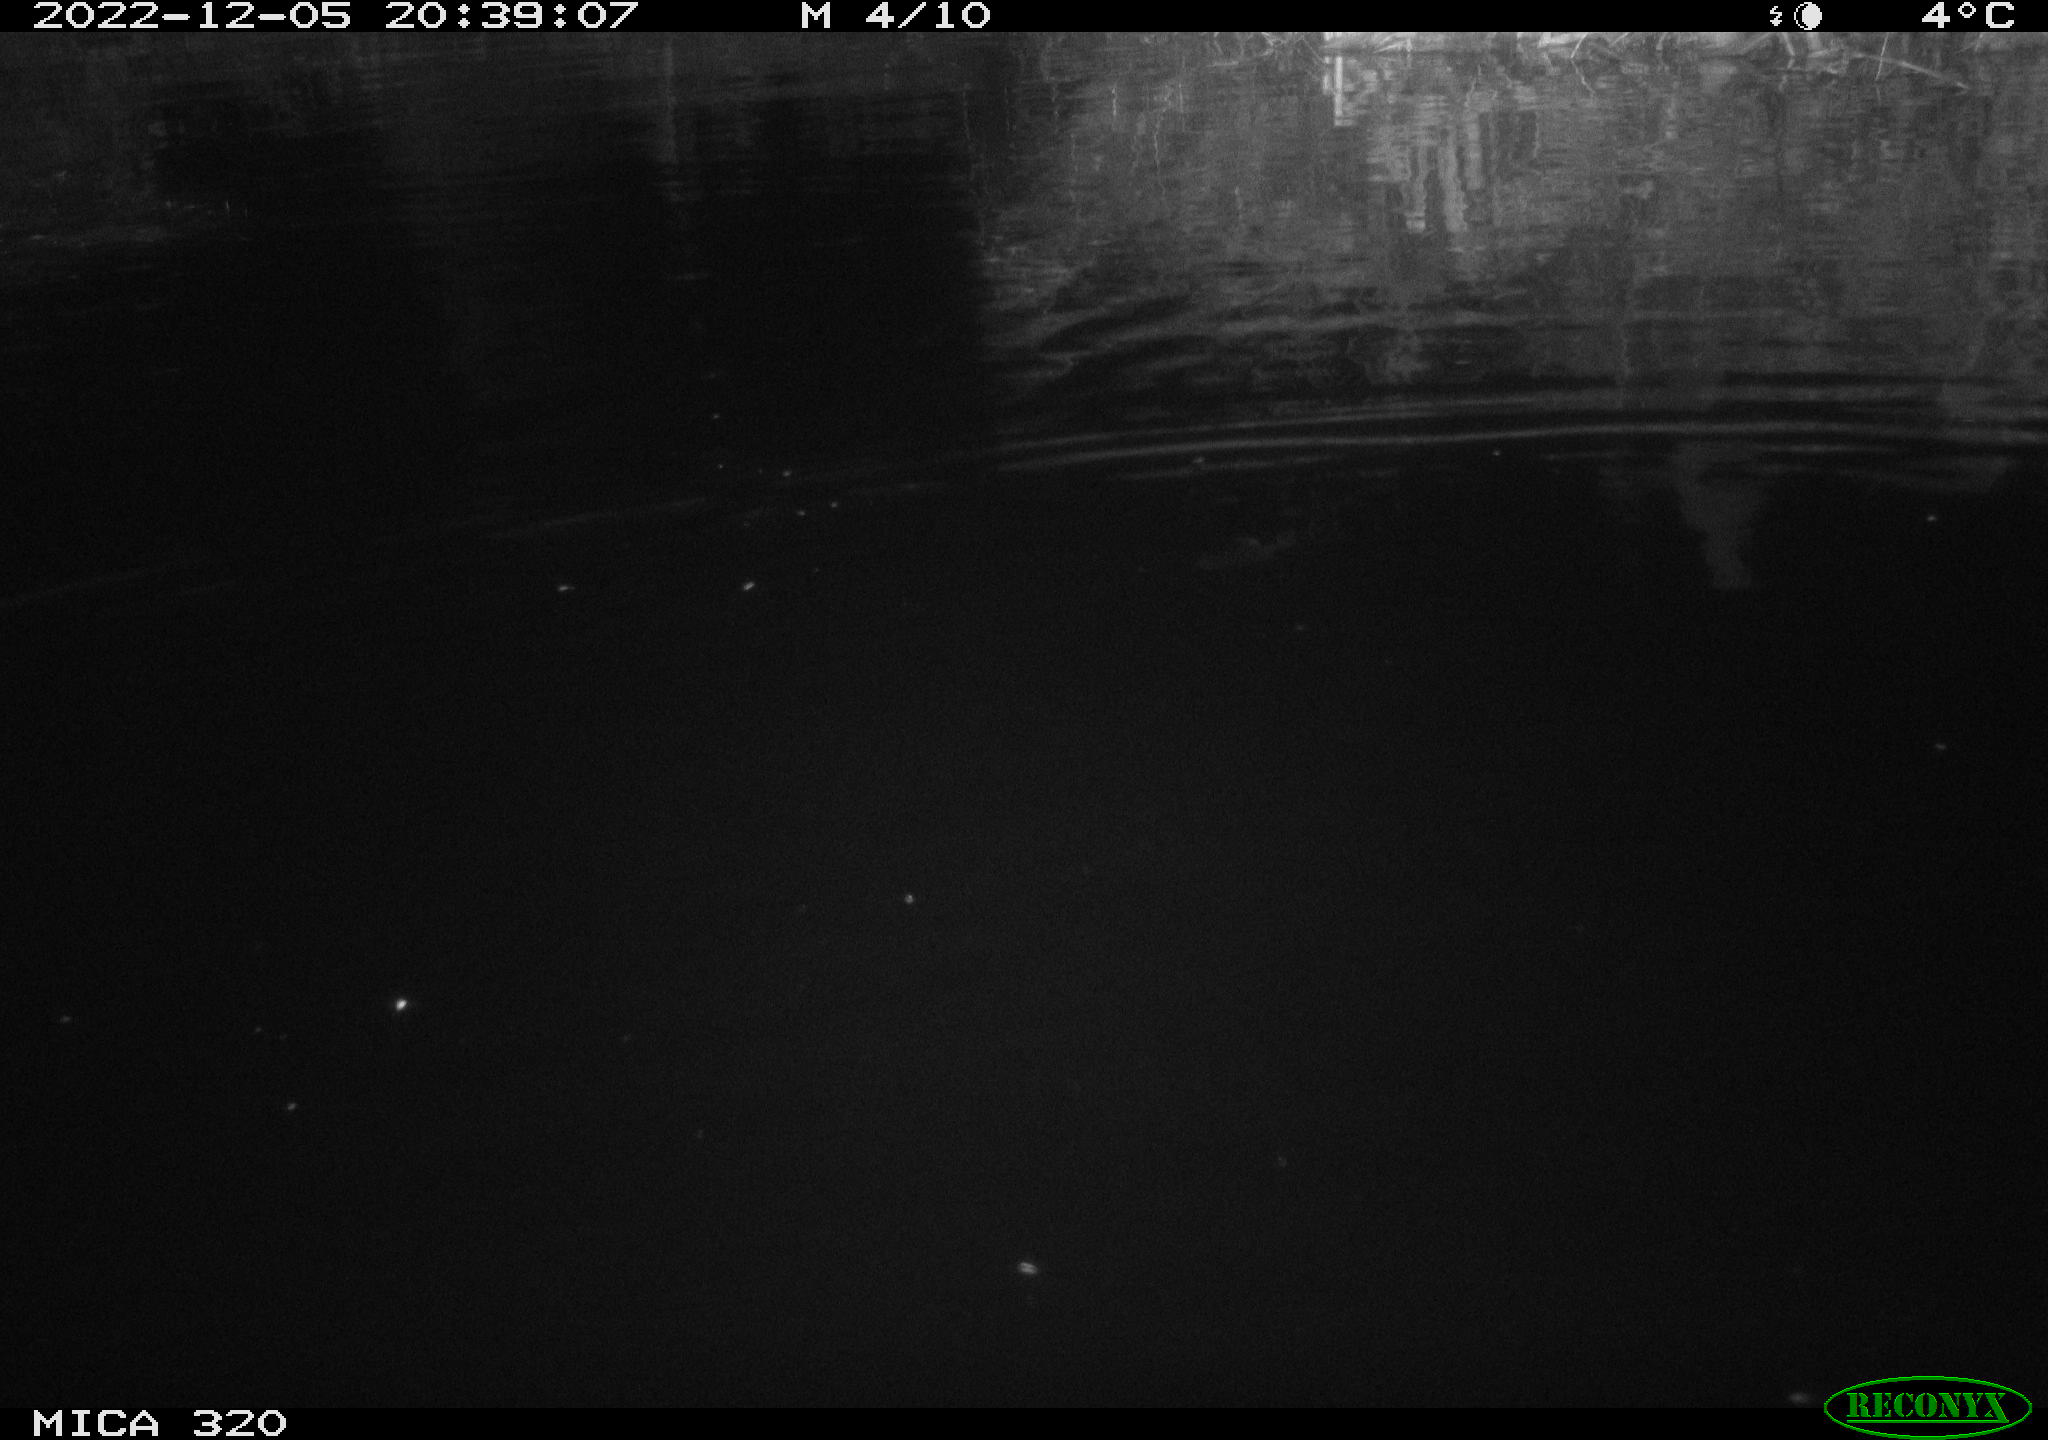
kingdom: Animalia
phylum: Chordata
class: Aves
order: Anseriformes
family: Anatidae
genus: Anas
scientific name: Anas
